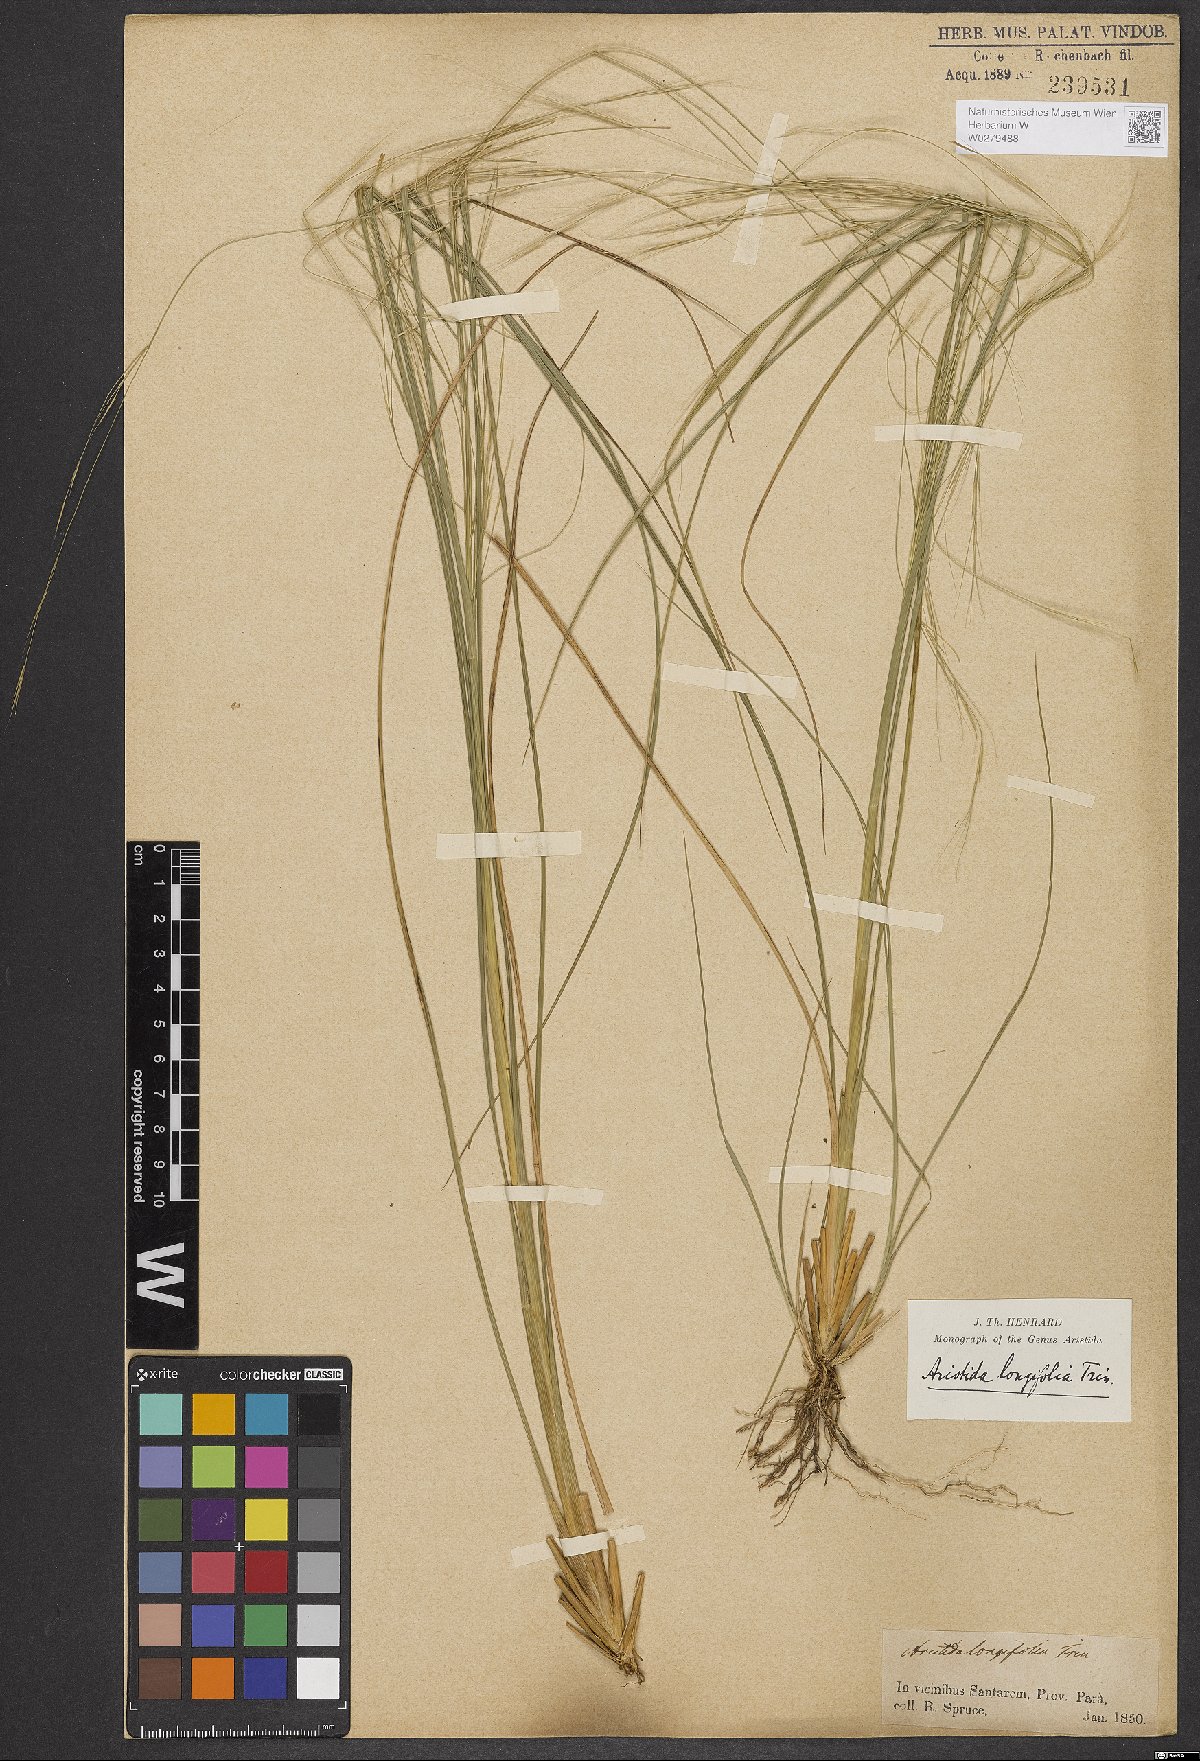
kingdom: Plantae
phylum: Tracheophyta
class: Liliopsida
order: Poales
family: Poaceae
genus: Aristida
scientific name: Aristida longifolia
